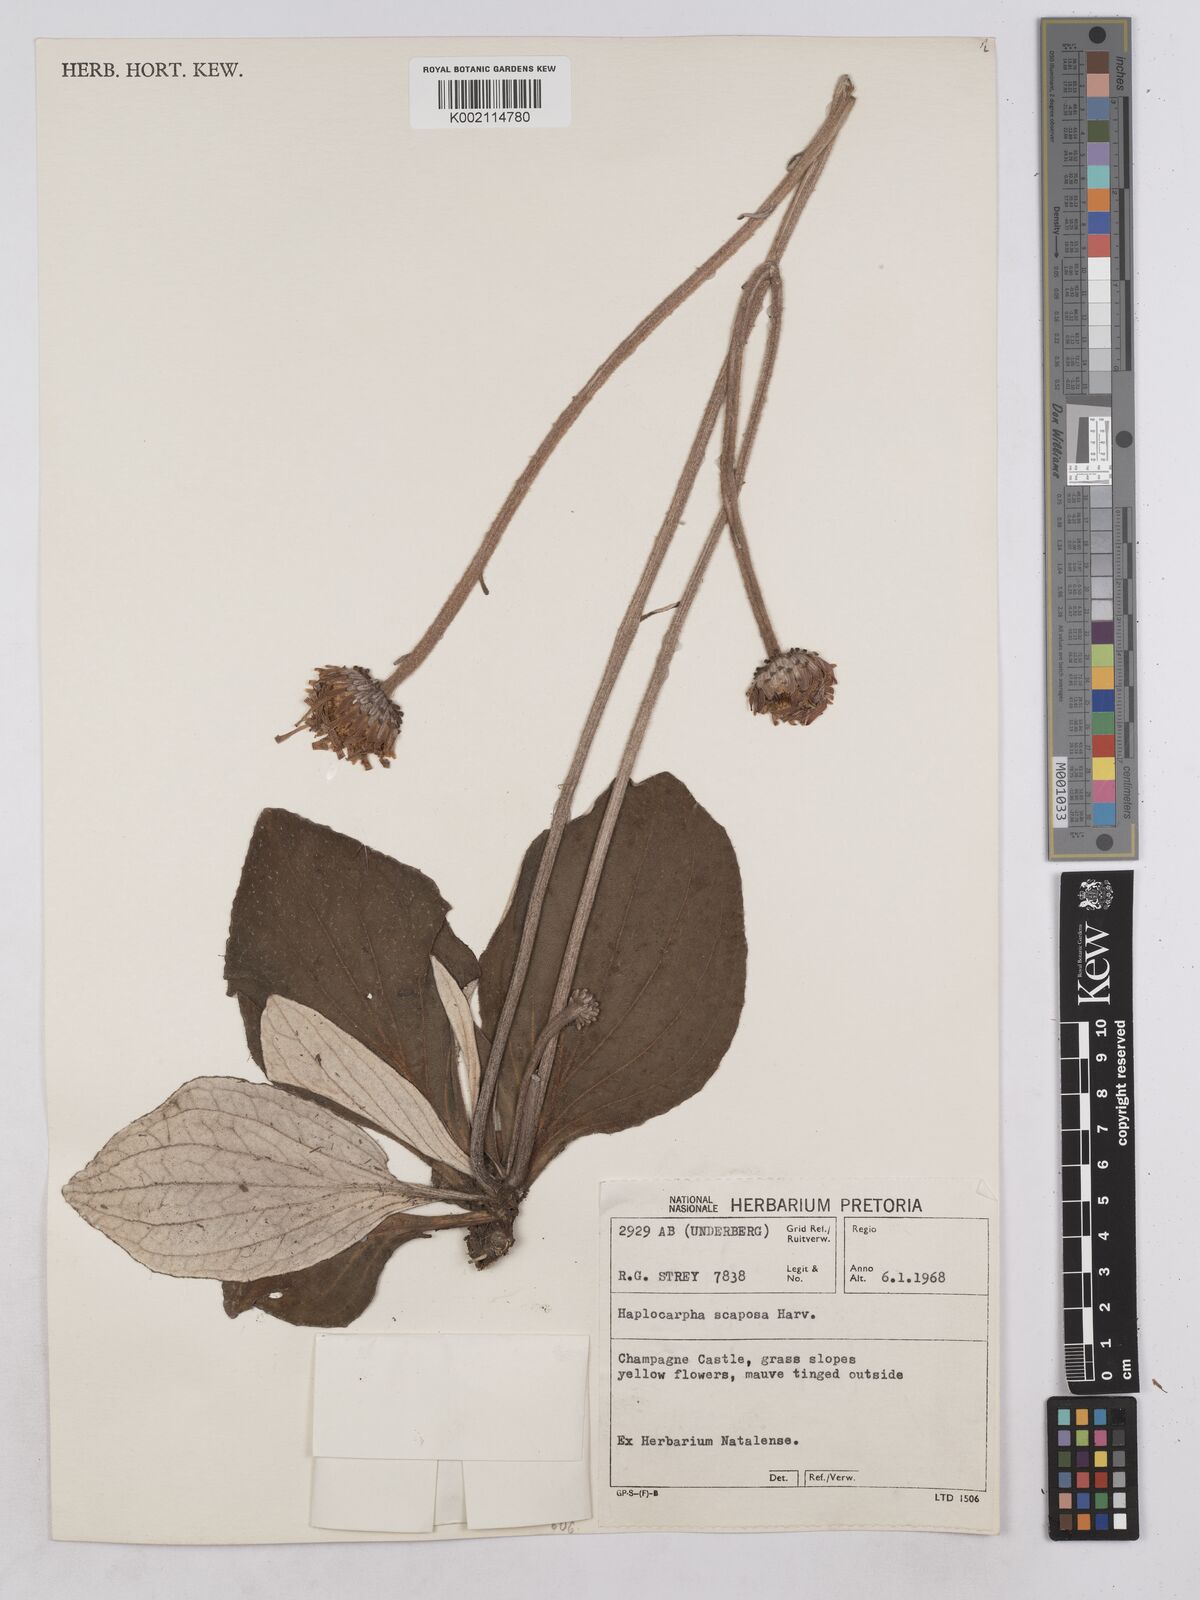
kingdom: Plantae
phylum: Tracheophyta
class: Magnoliopsida
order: Asterales
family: Asteraceae
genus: Haplocarpha
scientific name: Haplocarpha scaposa
